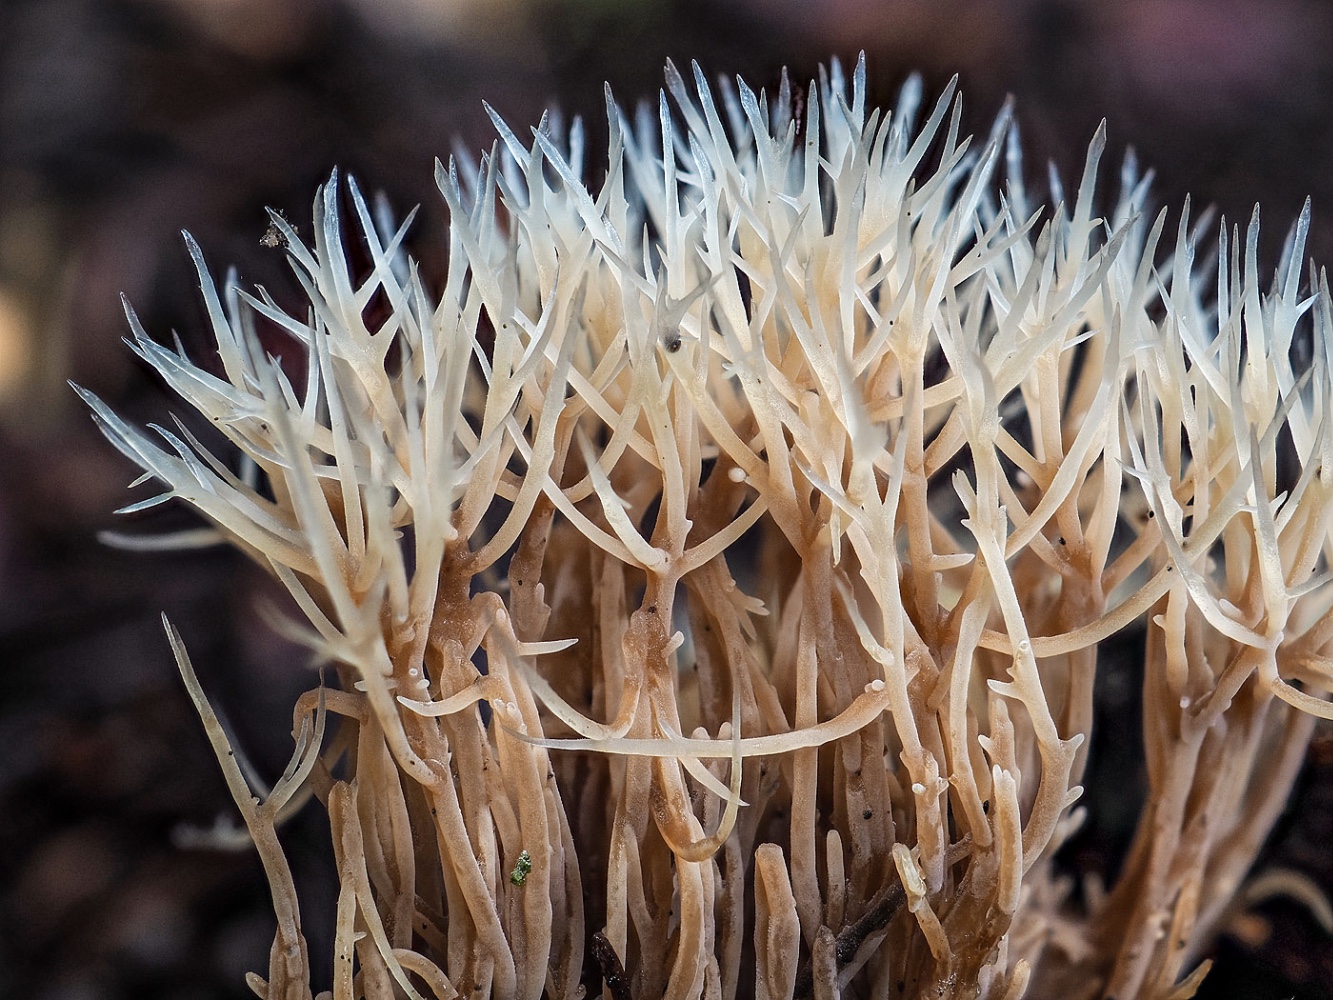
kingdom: Fungi
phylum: Basidiomycota
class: Agaricomycetes
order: Agaricales
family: Pterulaceae
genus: Pterula
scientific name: Pterula multifida
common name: busket fjerkølle
